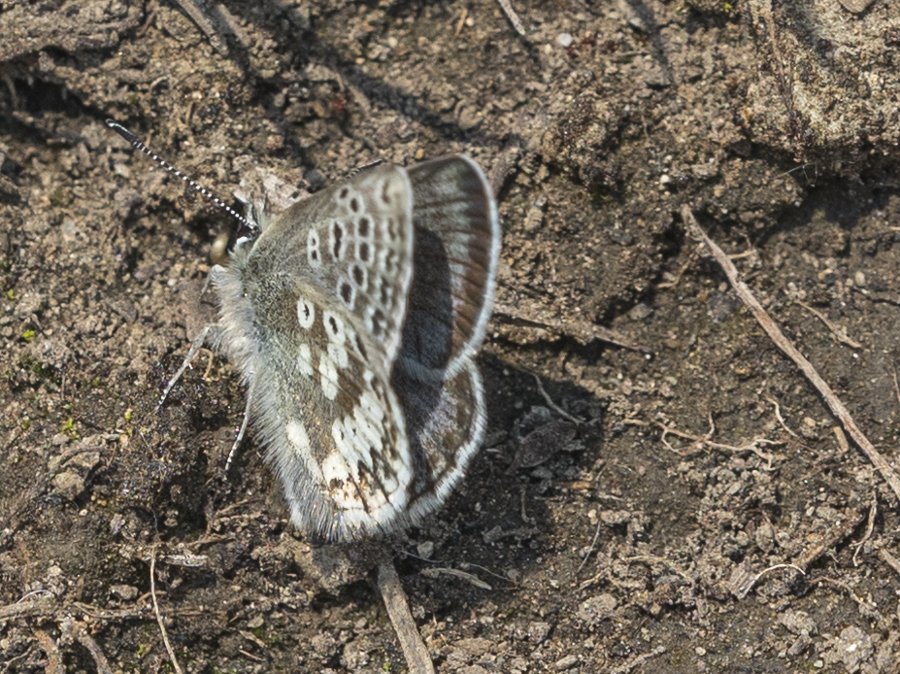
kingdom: Animalia
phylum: Arthropoda
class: Insecta
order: Lepidoptera
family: Lycaenidae
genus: Agriades
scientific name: Agriades glandon
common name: Arctic Blue
